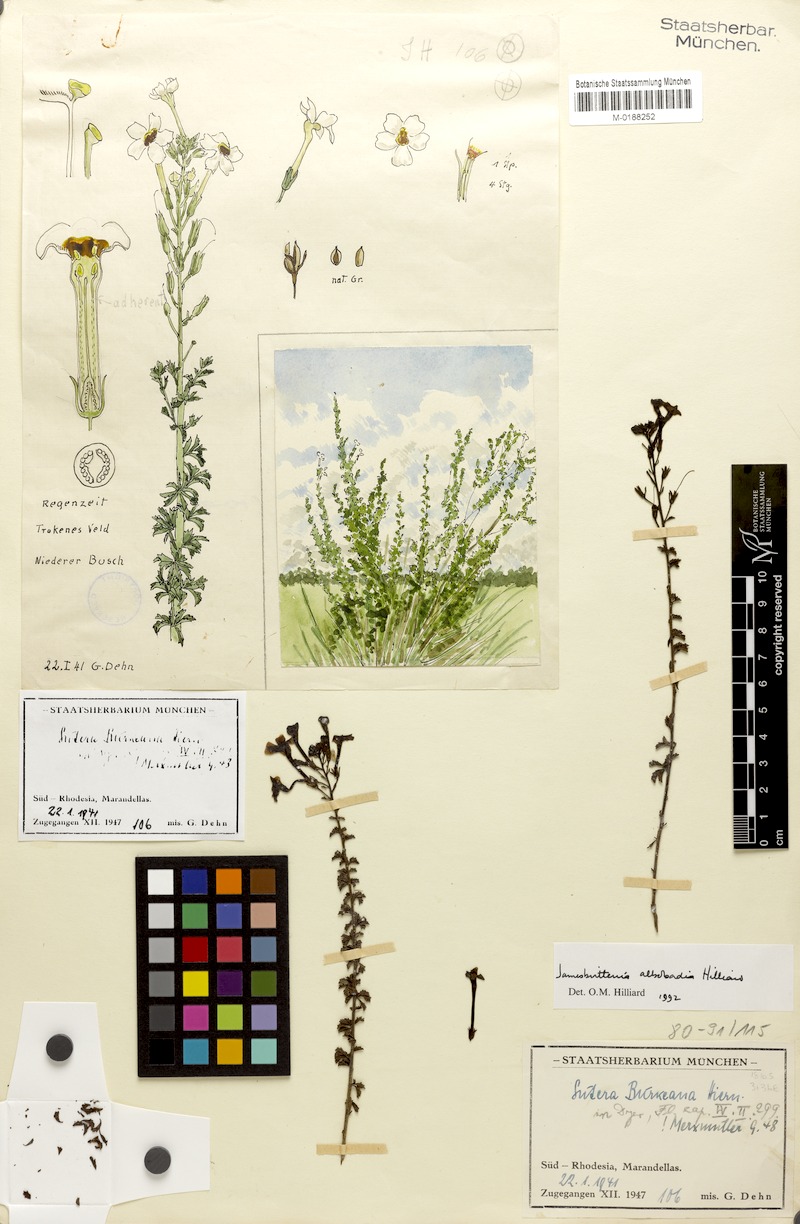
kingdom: Plantae
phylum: Tracheophyta
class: Magnoliopsida
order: Lamiales
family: Scrophulariaceae
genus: Jamesbrittenia
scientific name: Jamesbrittenia albobadia
